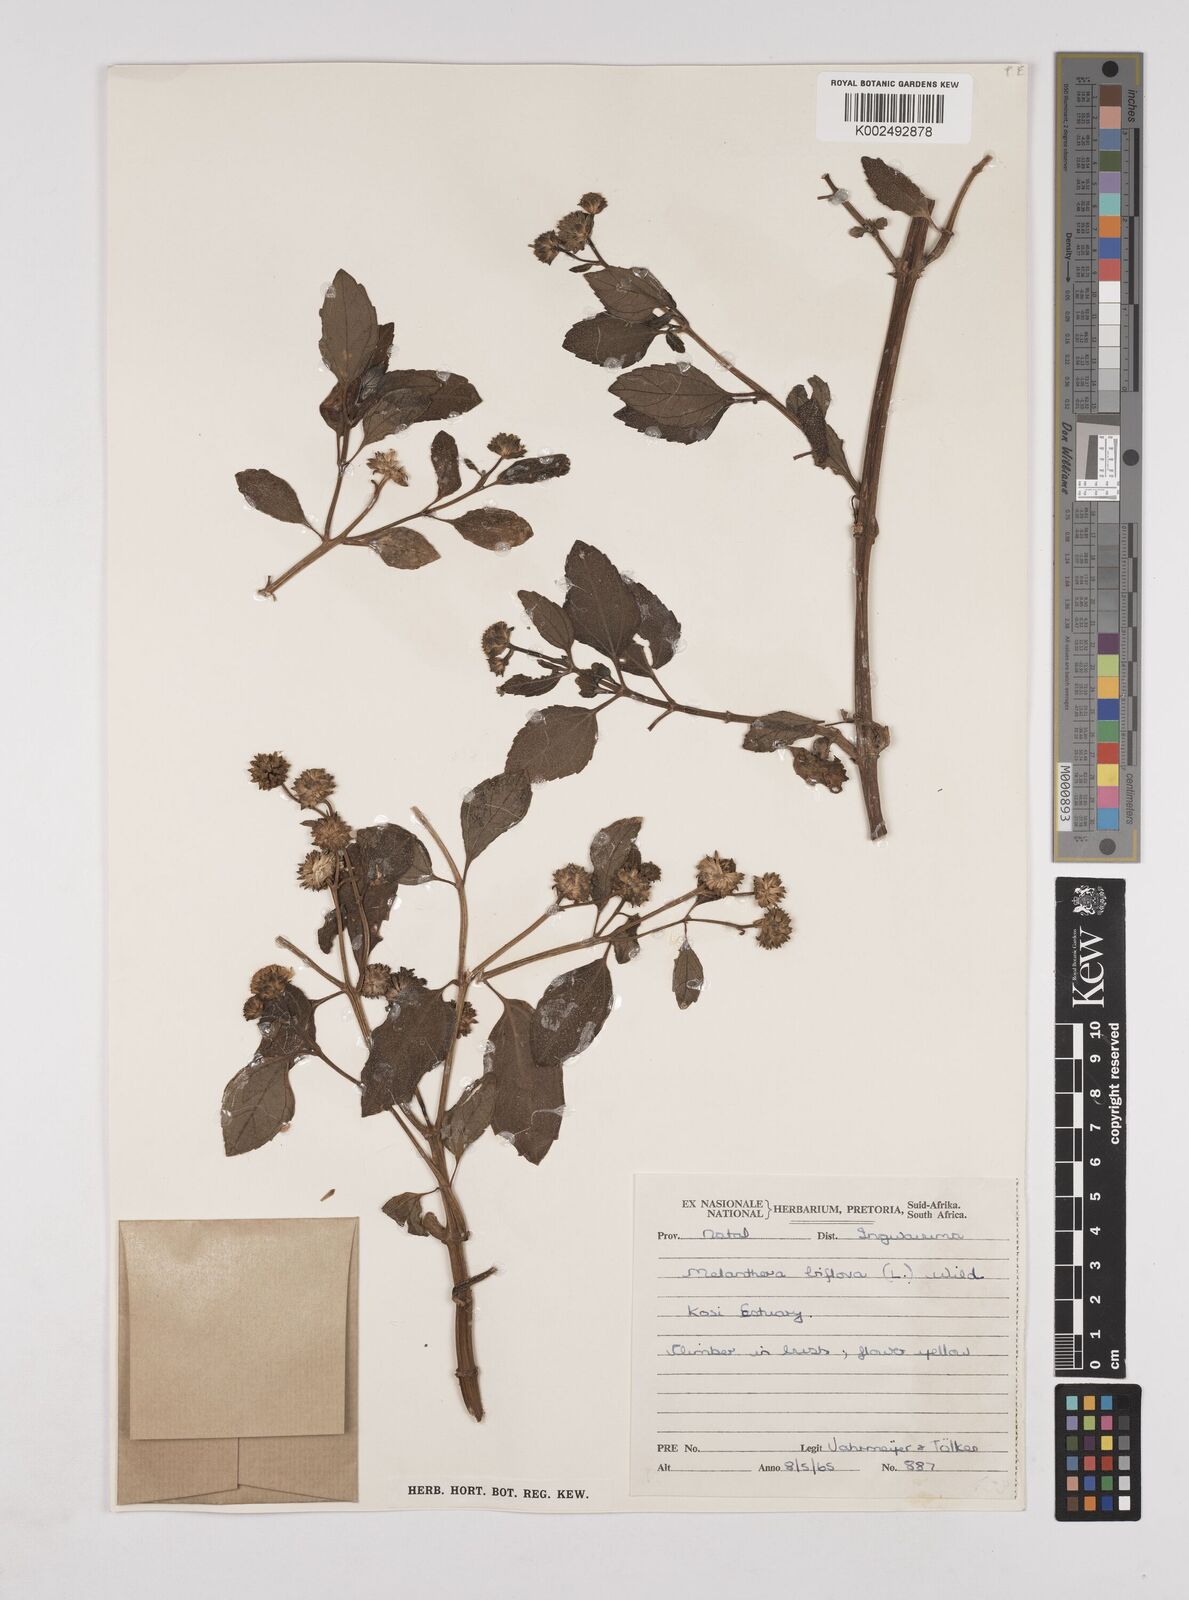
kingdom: Plantae
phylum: Tracheophyta
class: Magnoliopsida
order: Asterales
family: Asteraceae
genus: Wollastonia
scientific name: Wollastonia biflora
